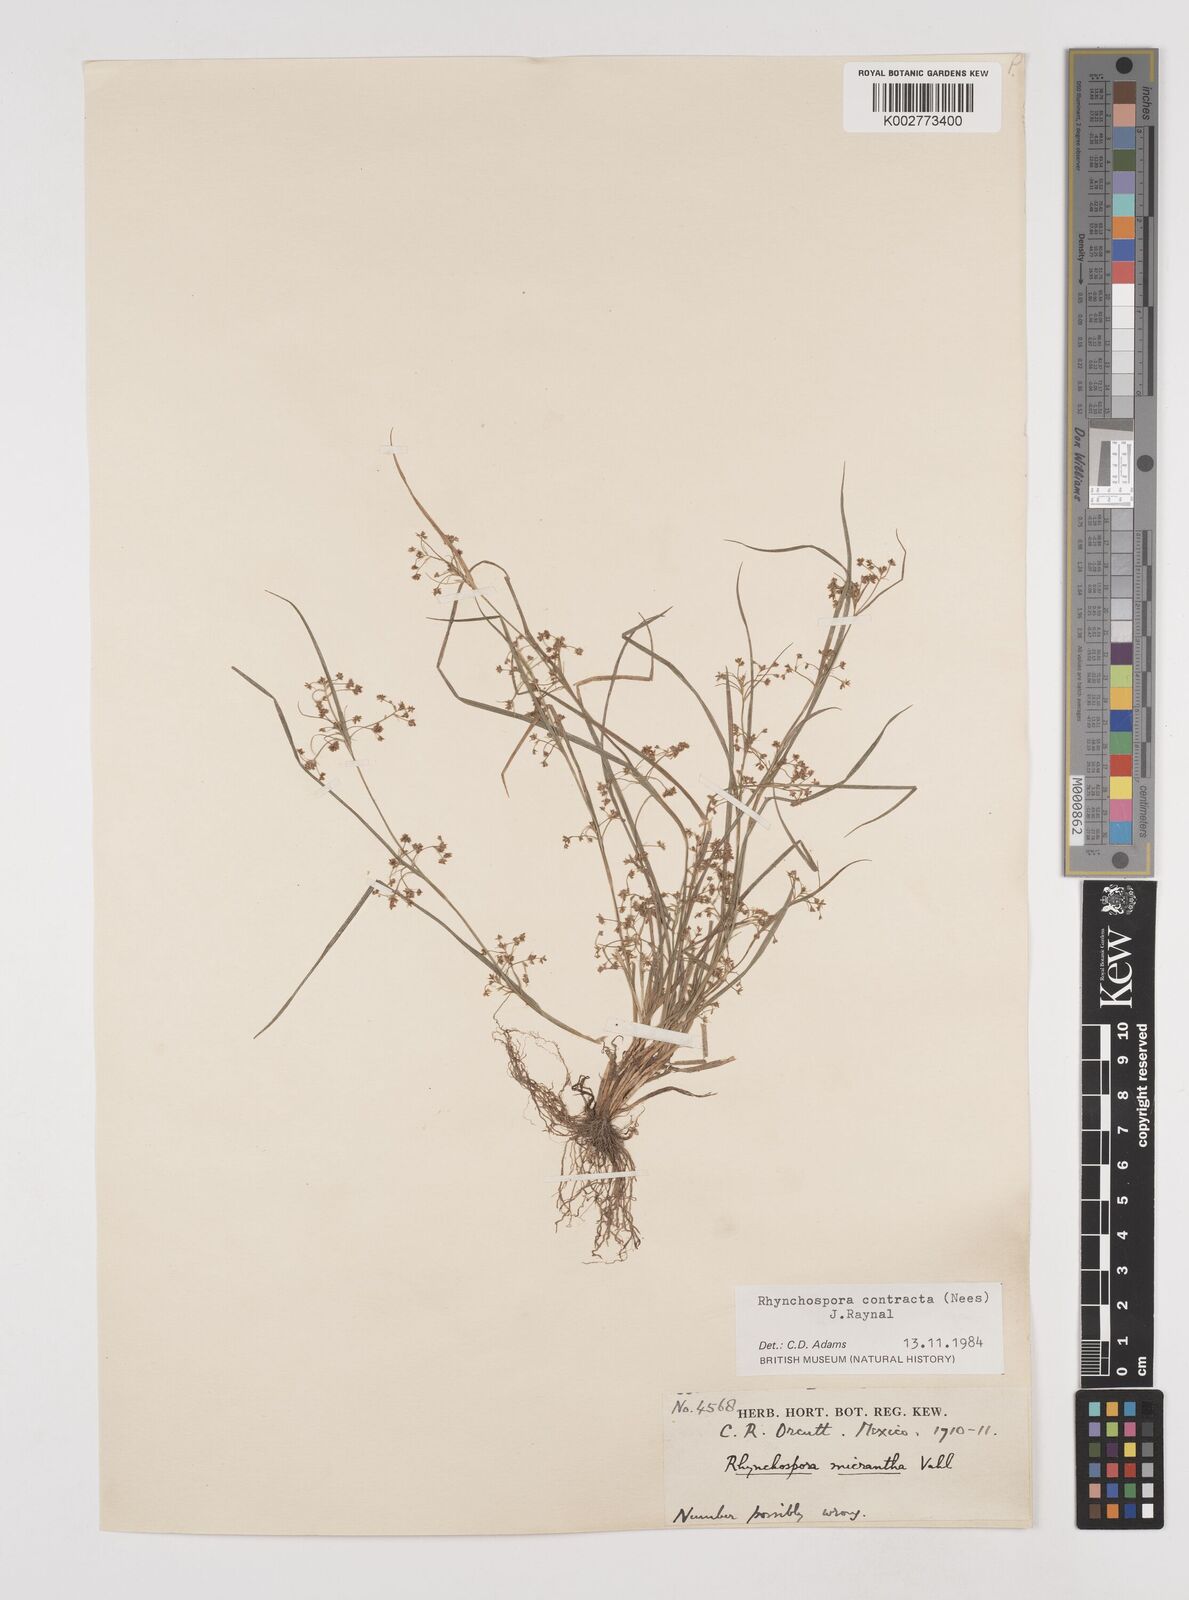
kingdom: Plantae
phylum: Tracheophyta
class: Liliopsida
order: Poales
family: Cyperaceae
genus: Rhynchospora
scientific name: Rhynchospora contracta
